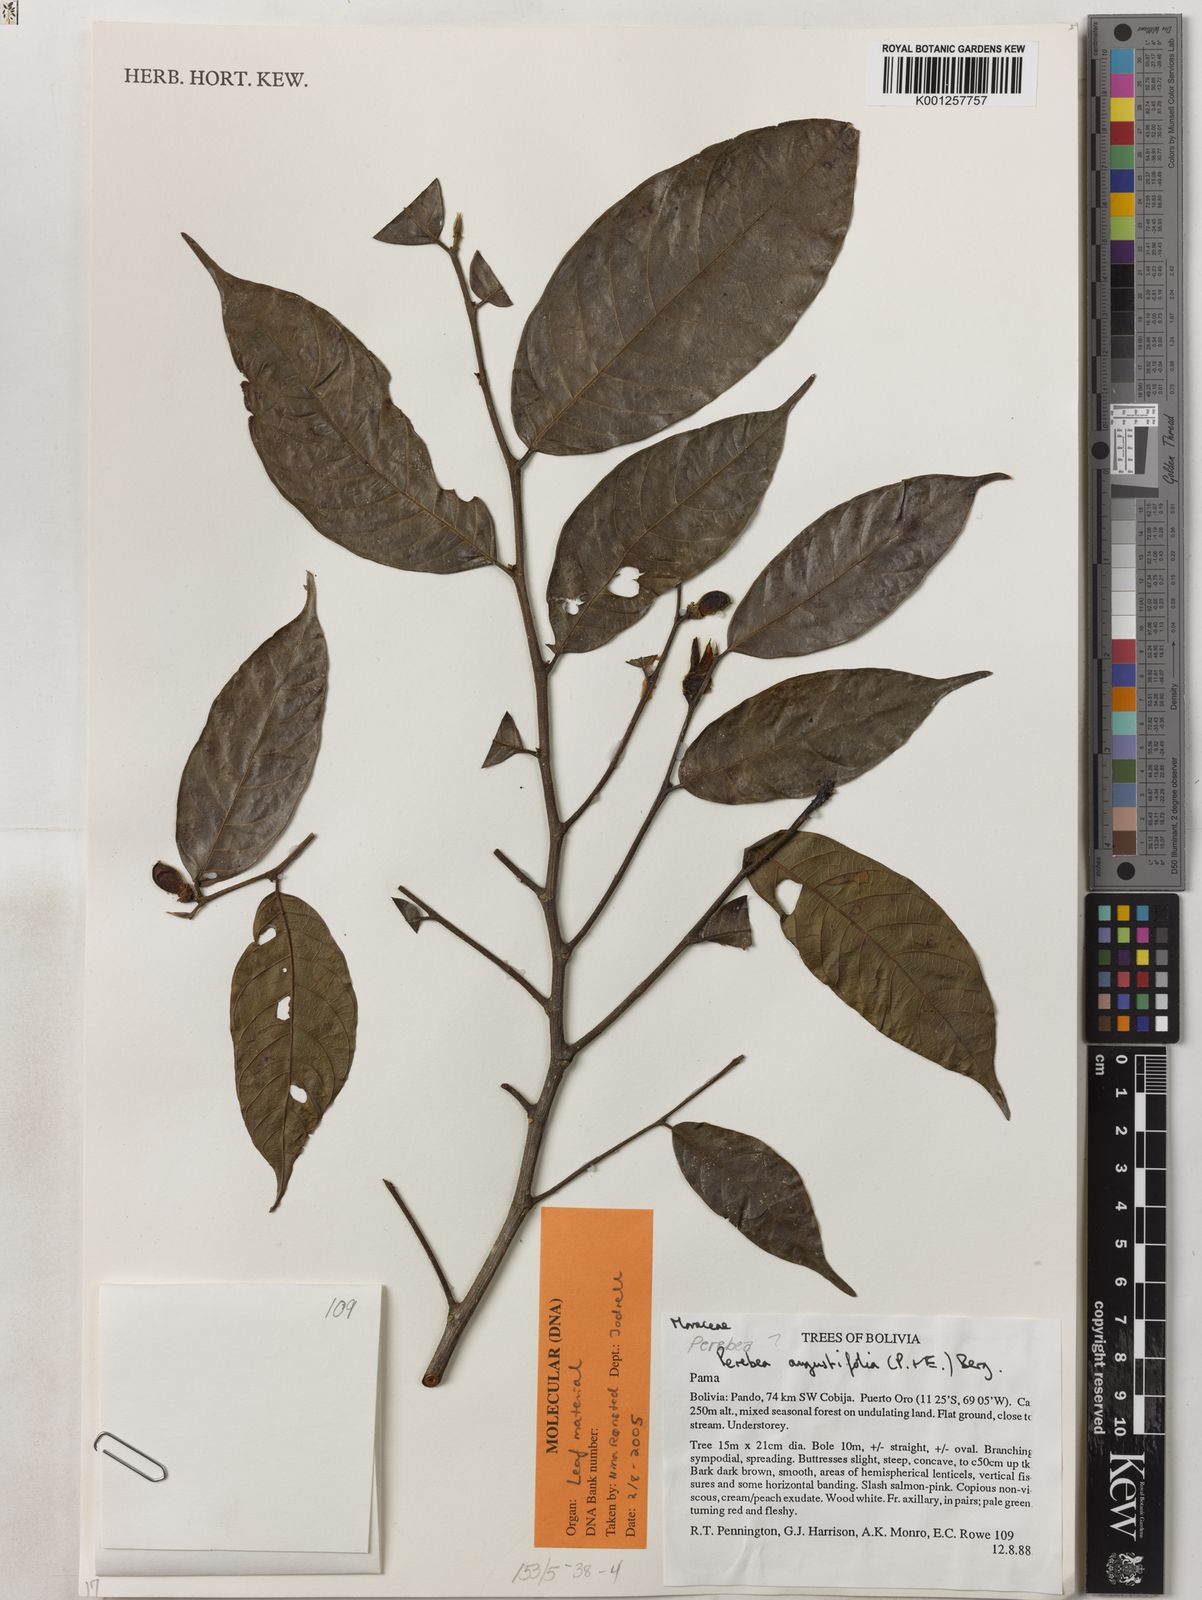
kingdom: Plantae
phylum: Tracheophyta
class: Magnoliopsida
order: Rosales
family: Moraceae
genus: Perebea
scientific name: Perebea angustifolia
